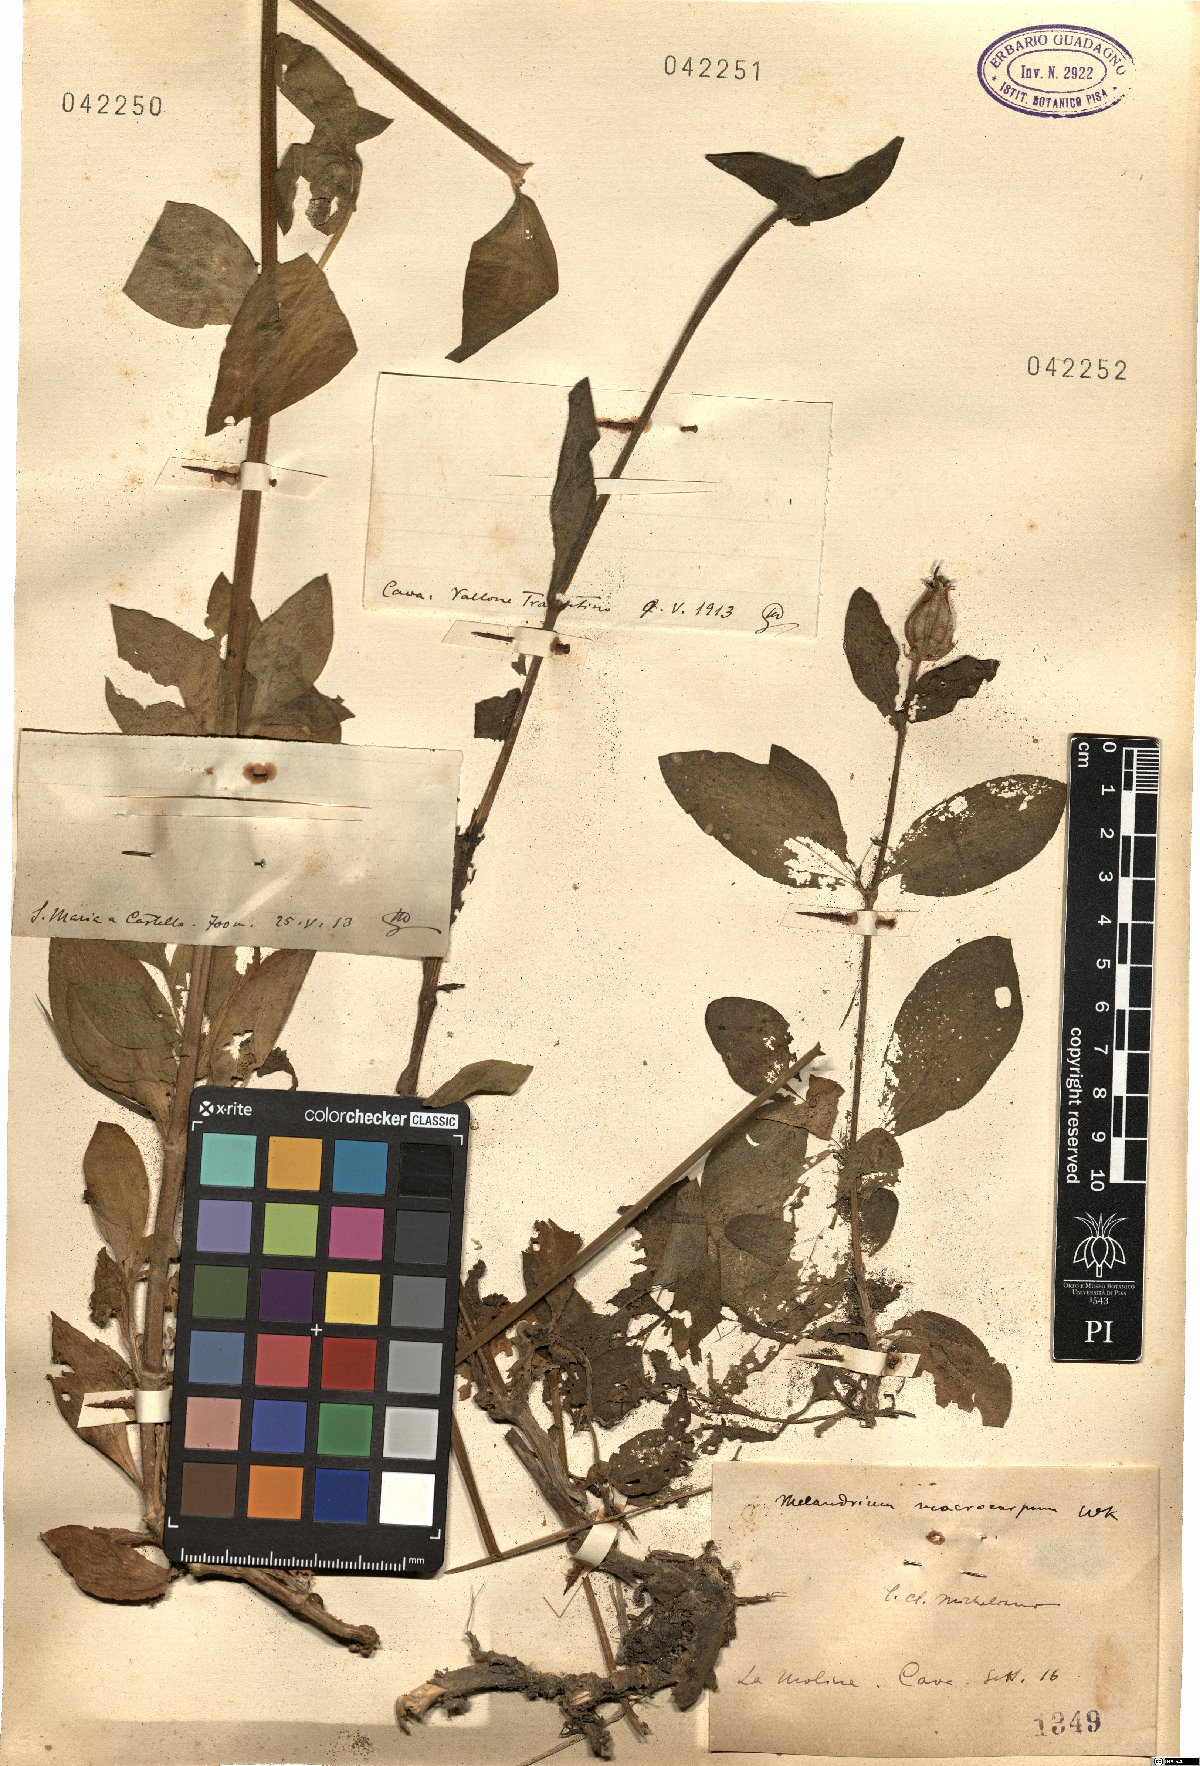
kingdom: Plantae
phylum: Tracheophyta
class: Magnoliopsida
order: Caryophyllales
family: Caryophyllaceae
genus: Silene
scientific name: Silene
